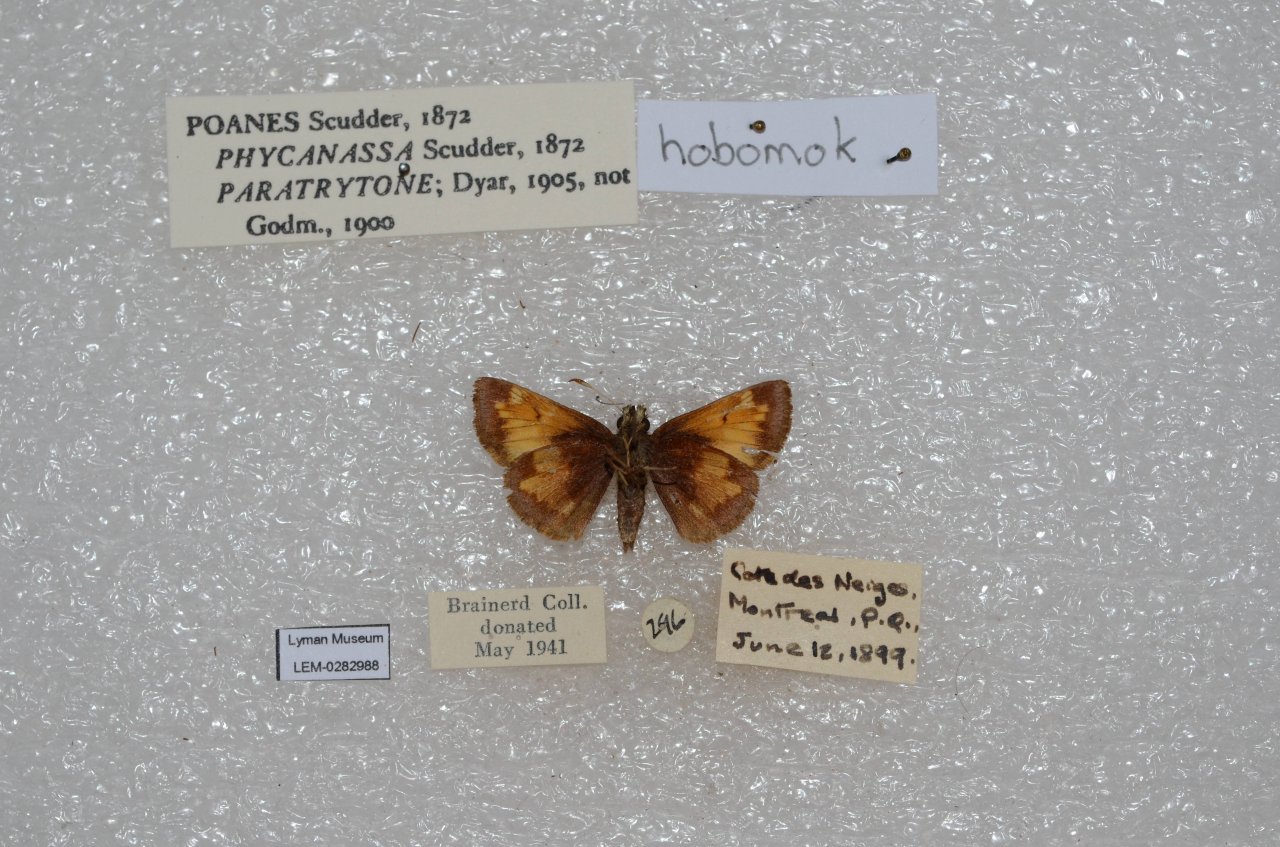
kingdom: Animalia
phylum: Arthropoda
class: Insecta
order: Lepidoptera
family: Hesperiidae
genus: Lon
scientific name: Lon hobomok
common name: Hobomok Skipper
